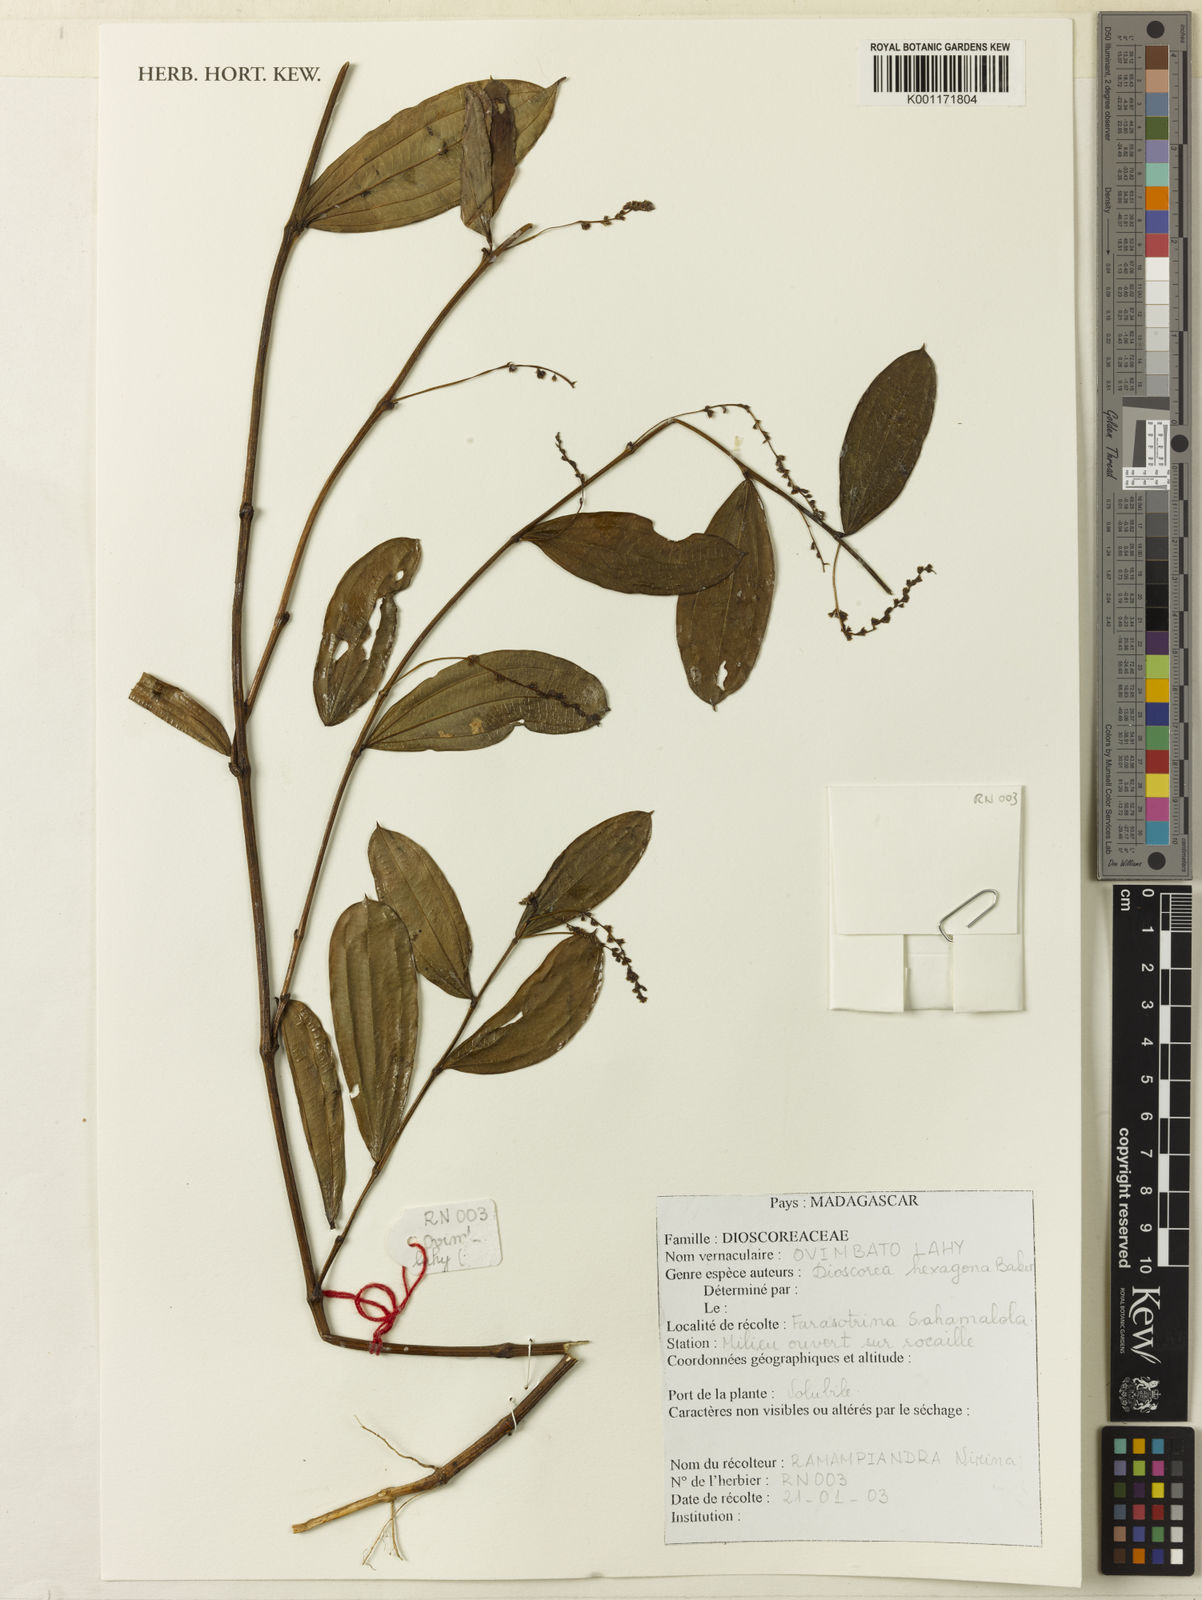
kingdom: Plantae
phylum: Tracheophyta
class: Liliopsida
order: Dioscoreales
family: Dioscoreaceae
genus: Dioscorea
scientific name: Dioscorea hexagona
